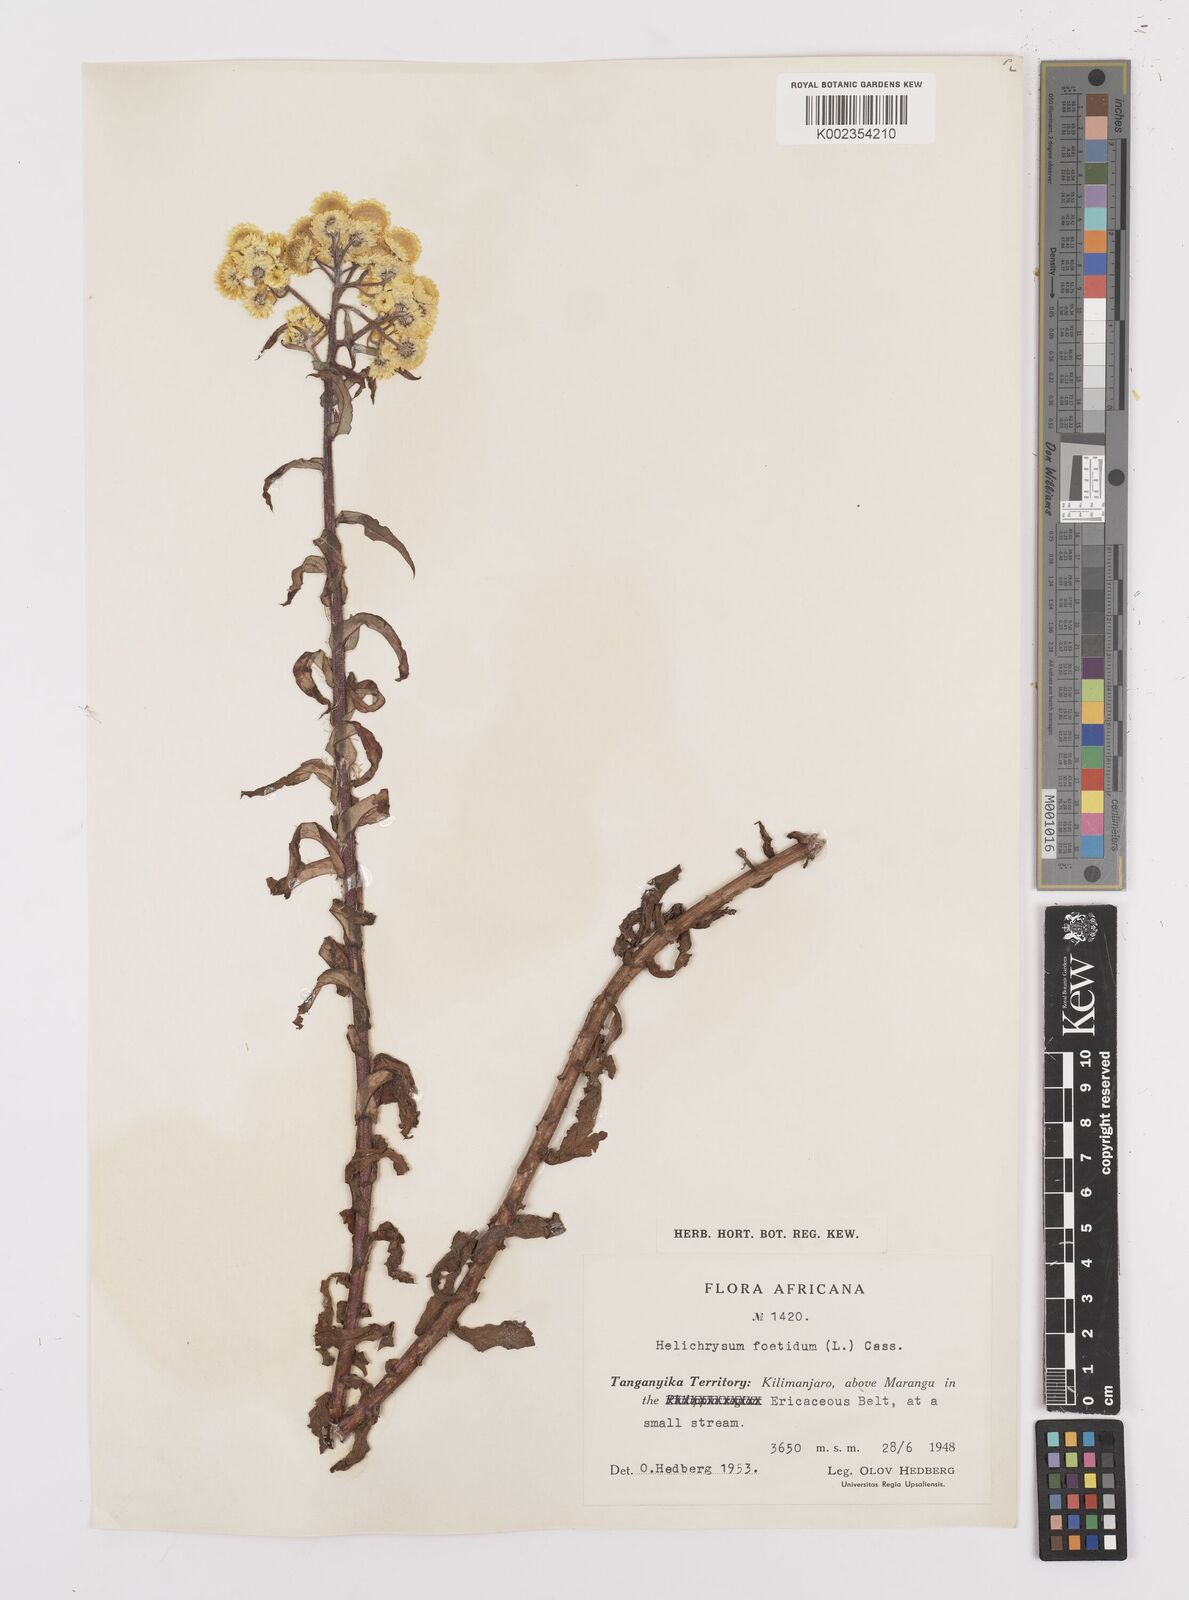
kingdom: Plantae
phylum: Tracheophyta
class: Magnoliopsida
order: Asterales
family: Asteraceae
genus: Helichrysum
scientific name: Helichrysum
